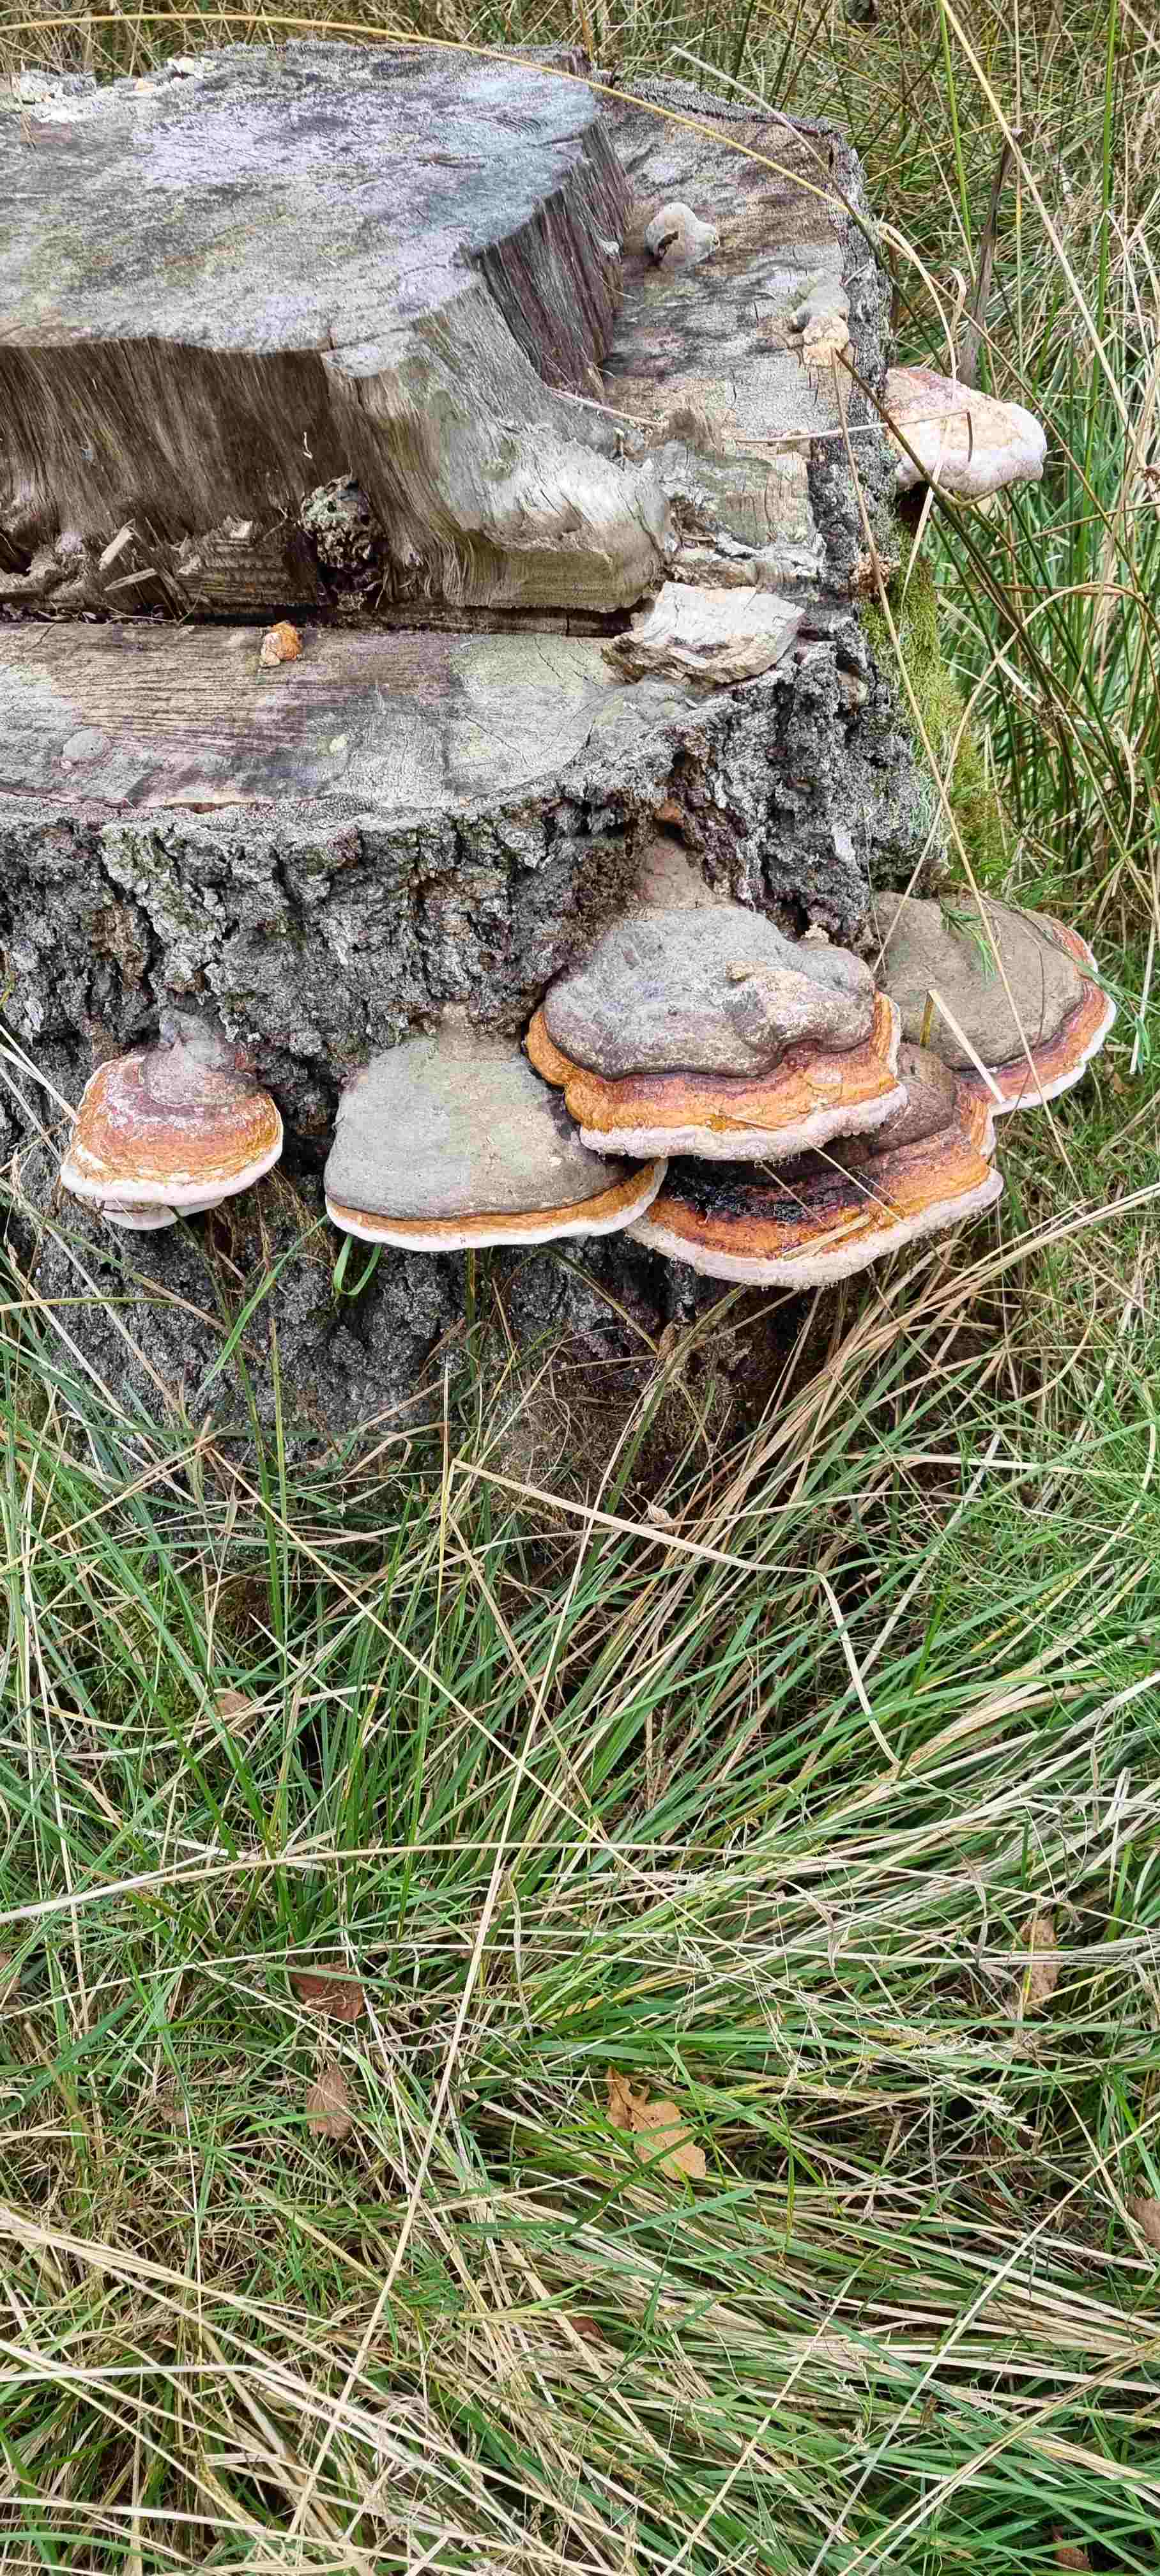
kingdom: Fungi
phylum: Basidiomycota
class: Agaricomycetes
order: Polyporales
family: Fomitopsidaceae
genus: Fomitopsis
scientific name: Fomitopsis pinicola
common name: randbæltet hovporesvamp
